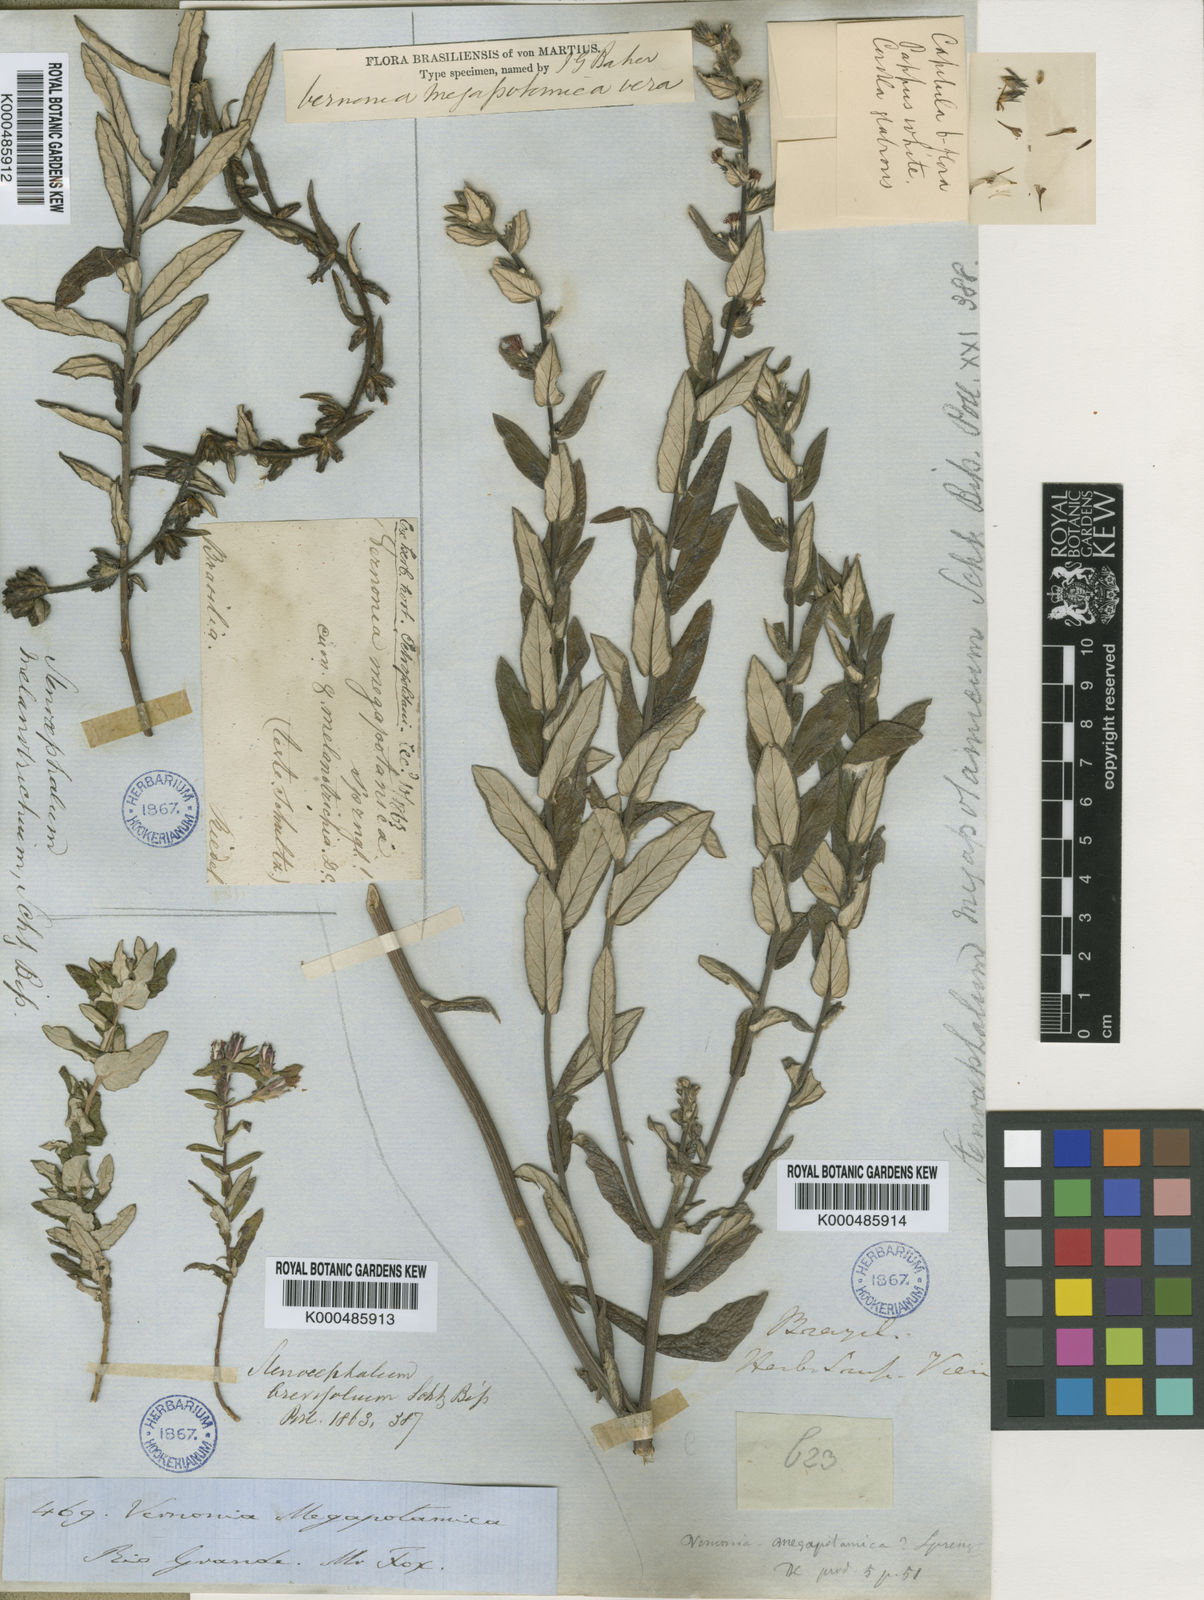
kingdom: Plantae
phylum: Tracheophyta
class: Magnoliopsida
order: Asterales
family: Asteraceae
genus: Stenocephalum
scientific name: Stenocephalum megapotamicum
